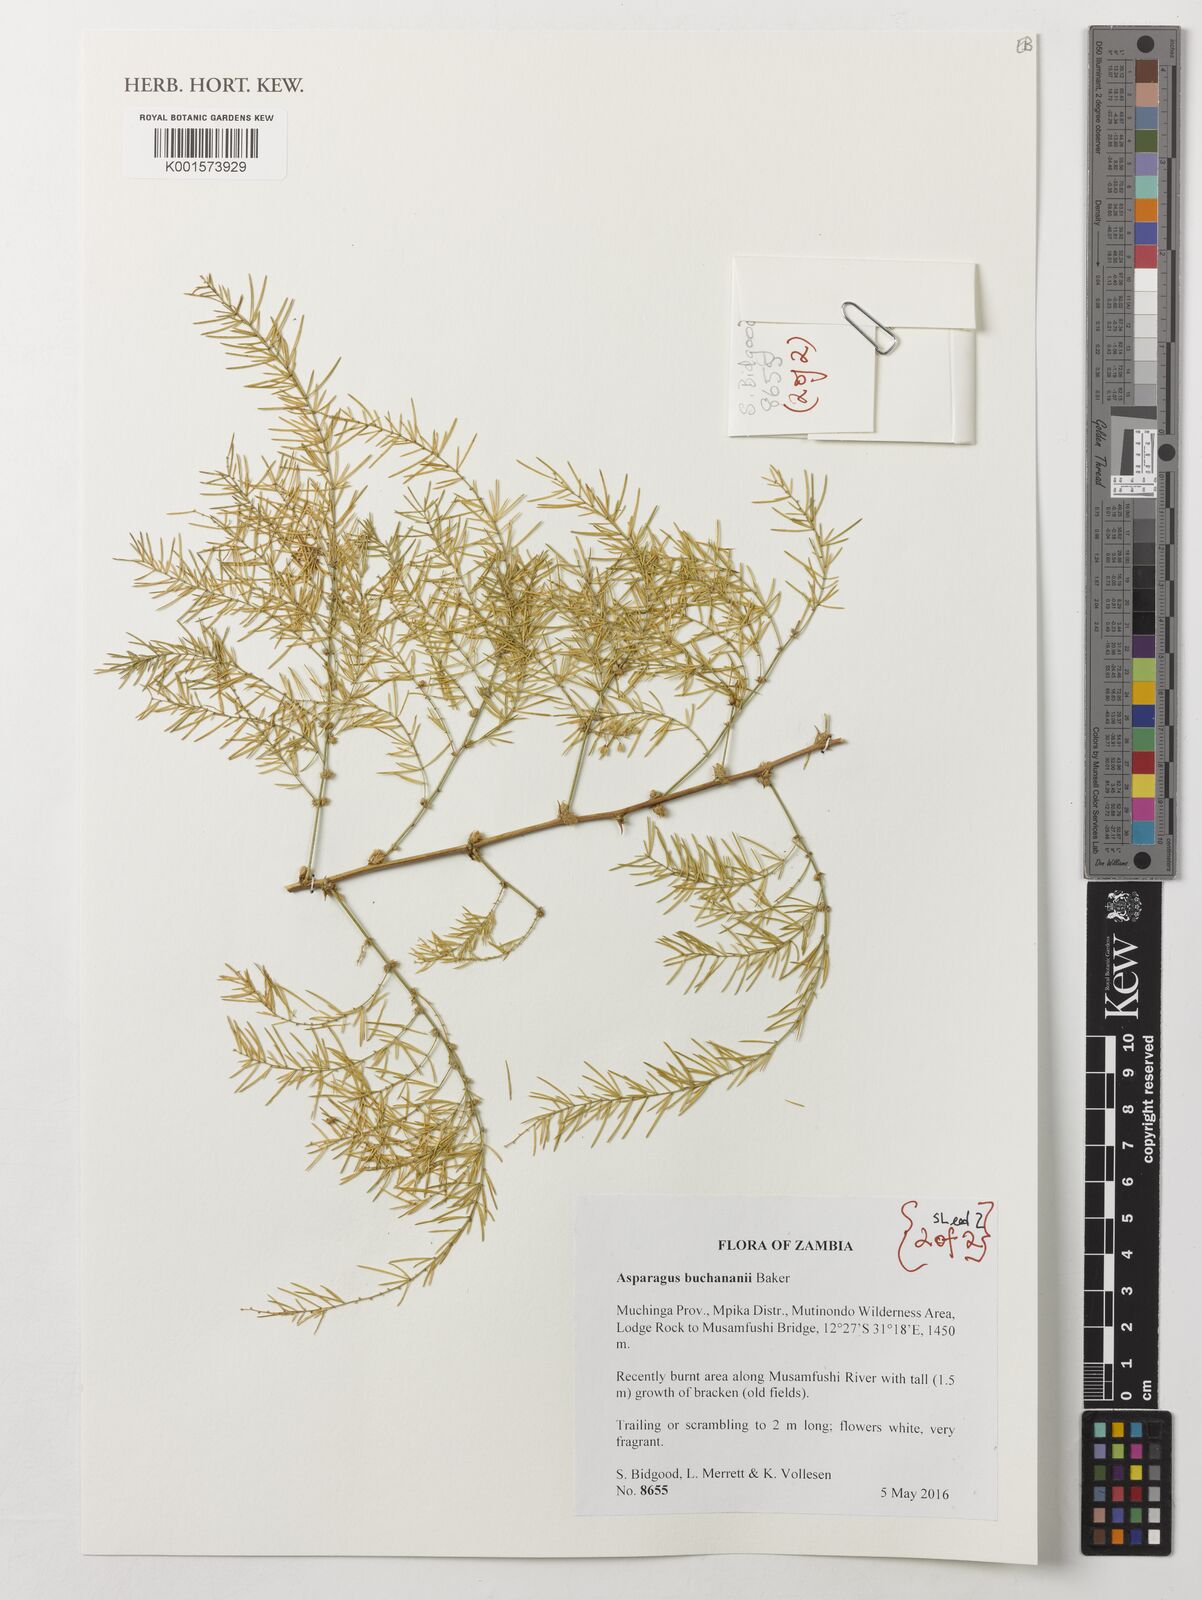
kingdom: Plantae
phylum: Tracheophyta
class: Liliopsida
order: Asparagales
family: Asparagaceae
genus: Asparagus
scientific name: Asparagus buchananii
